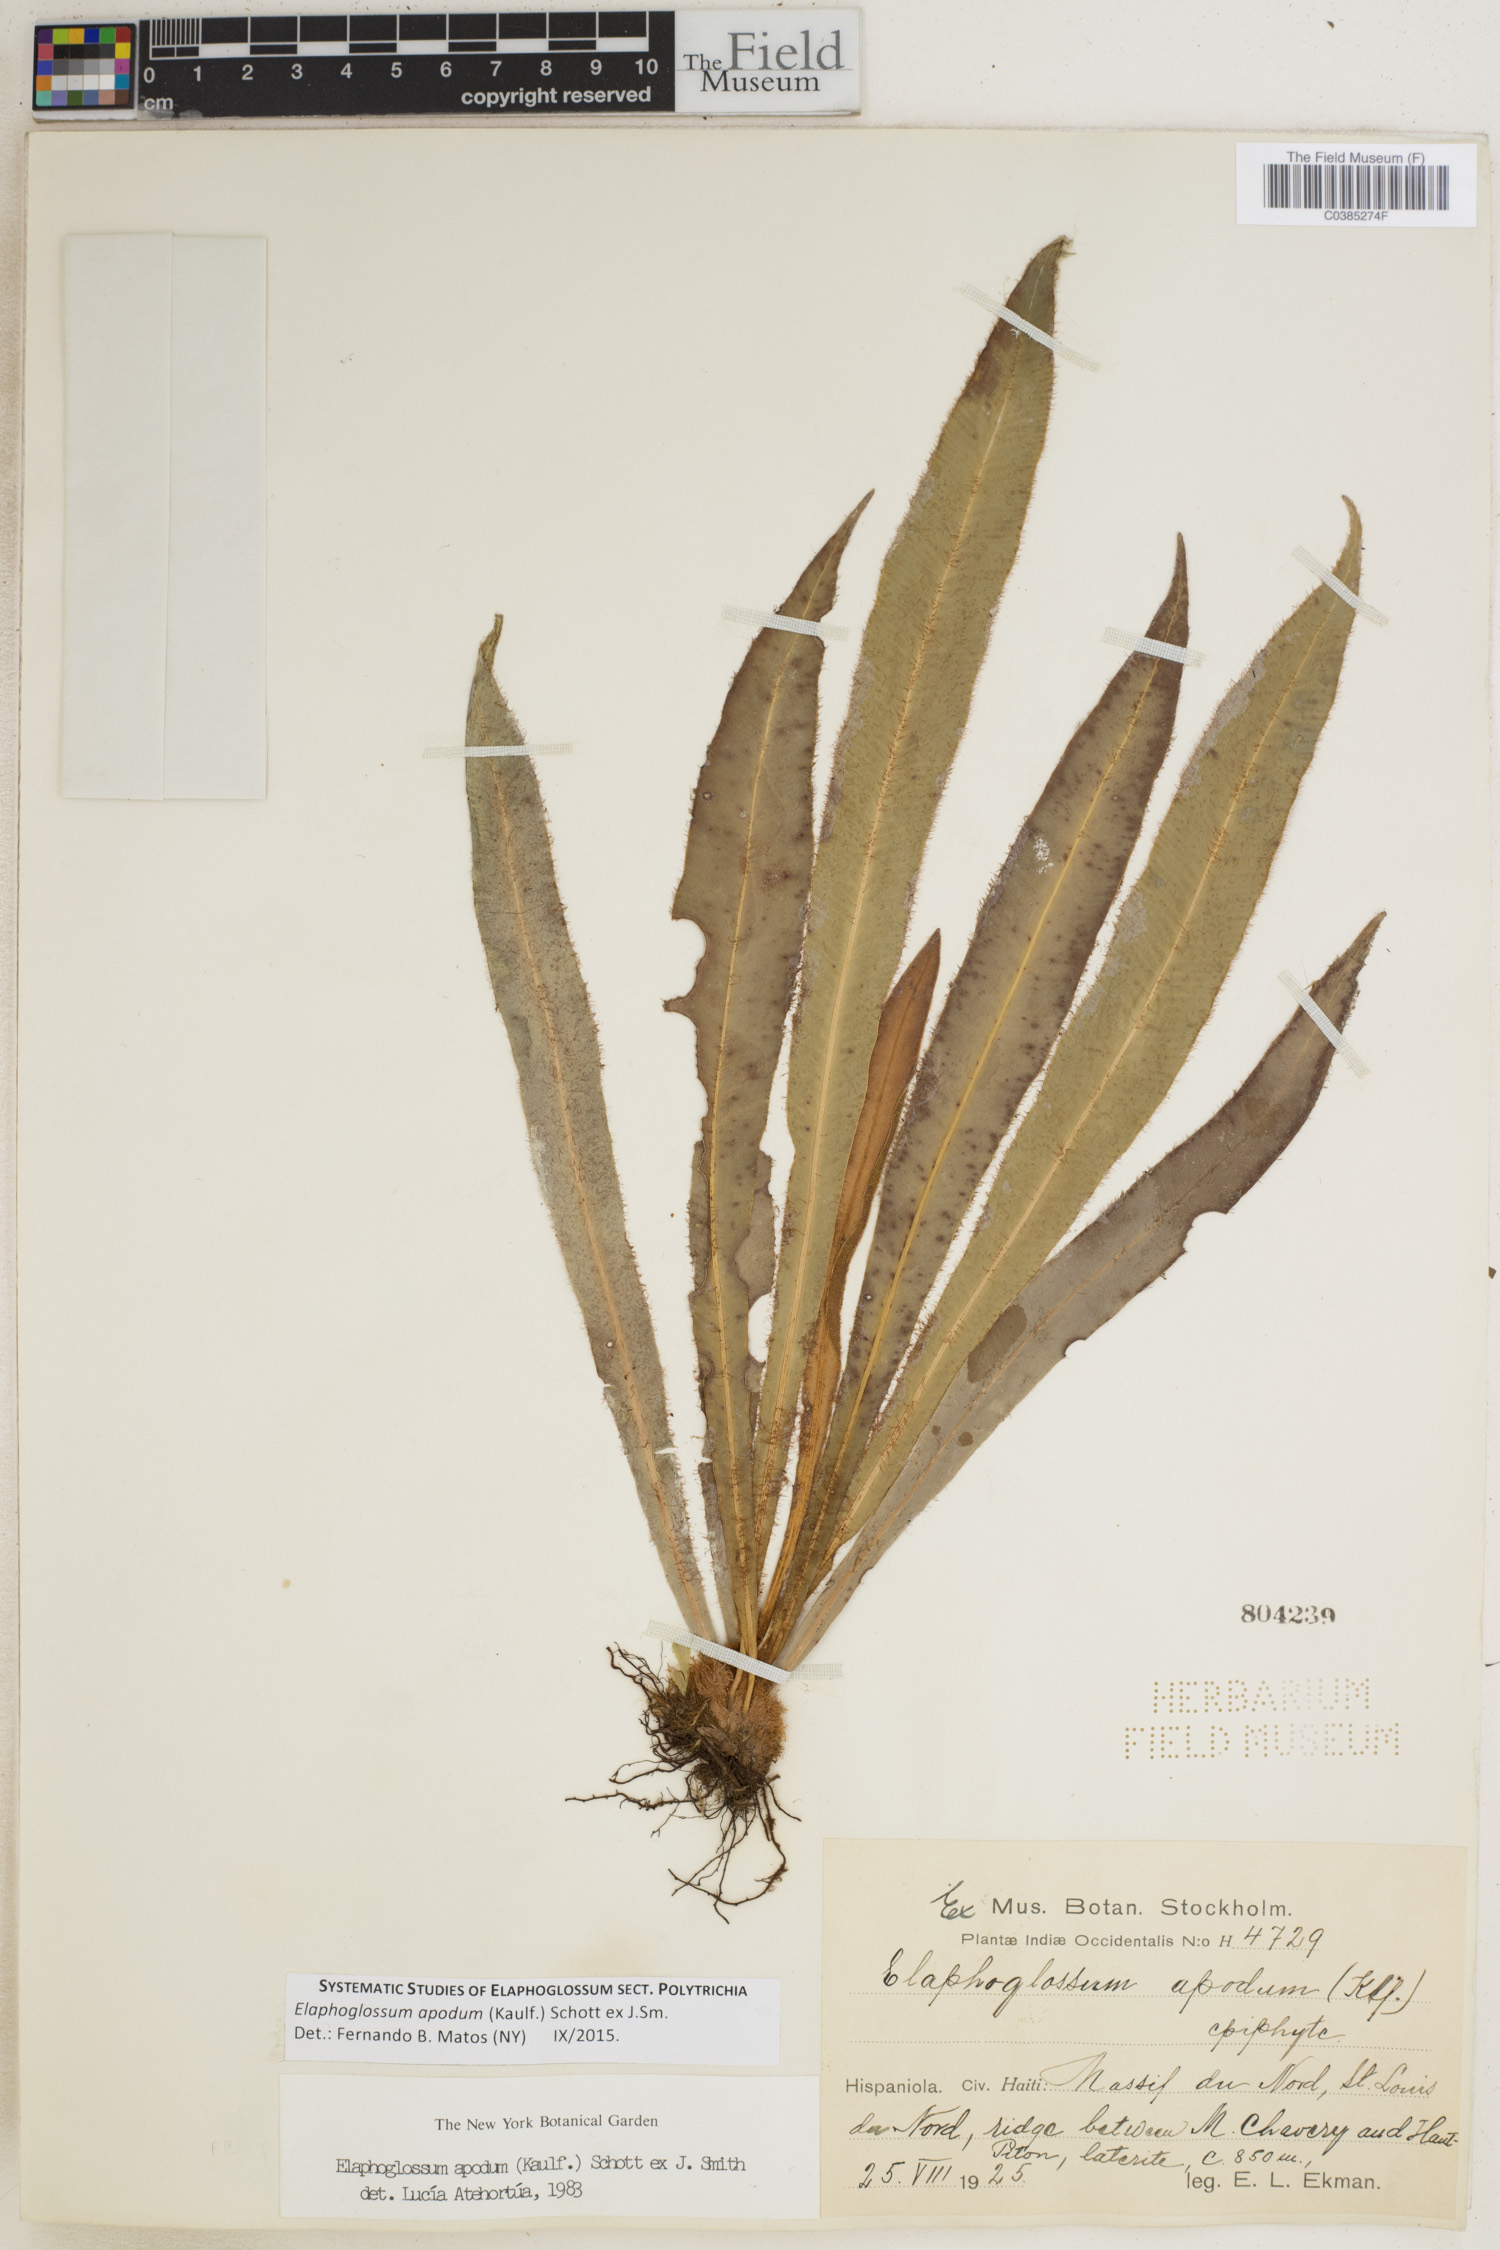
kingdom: Plantae
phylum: Tracheophyta
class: Polypodiopsida
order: Polypodiales
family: Dryopteridaceae
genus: Elaphoglossum
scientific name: Elaphoglossum apodum
